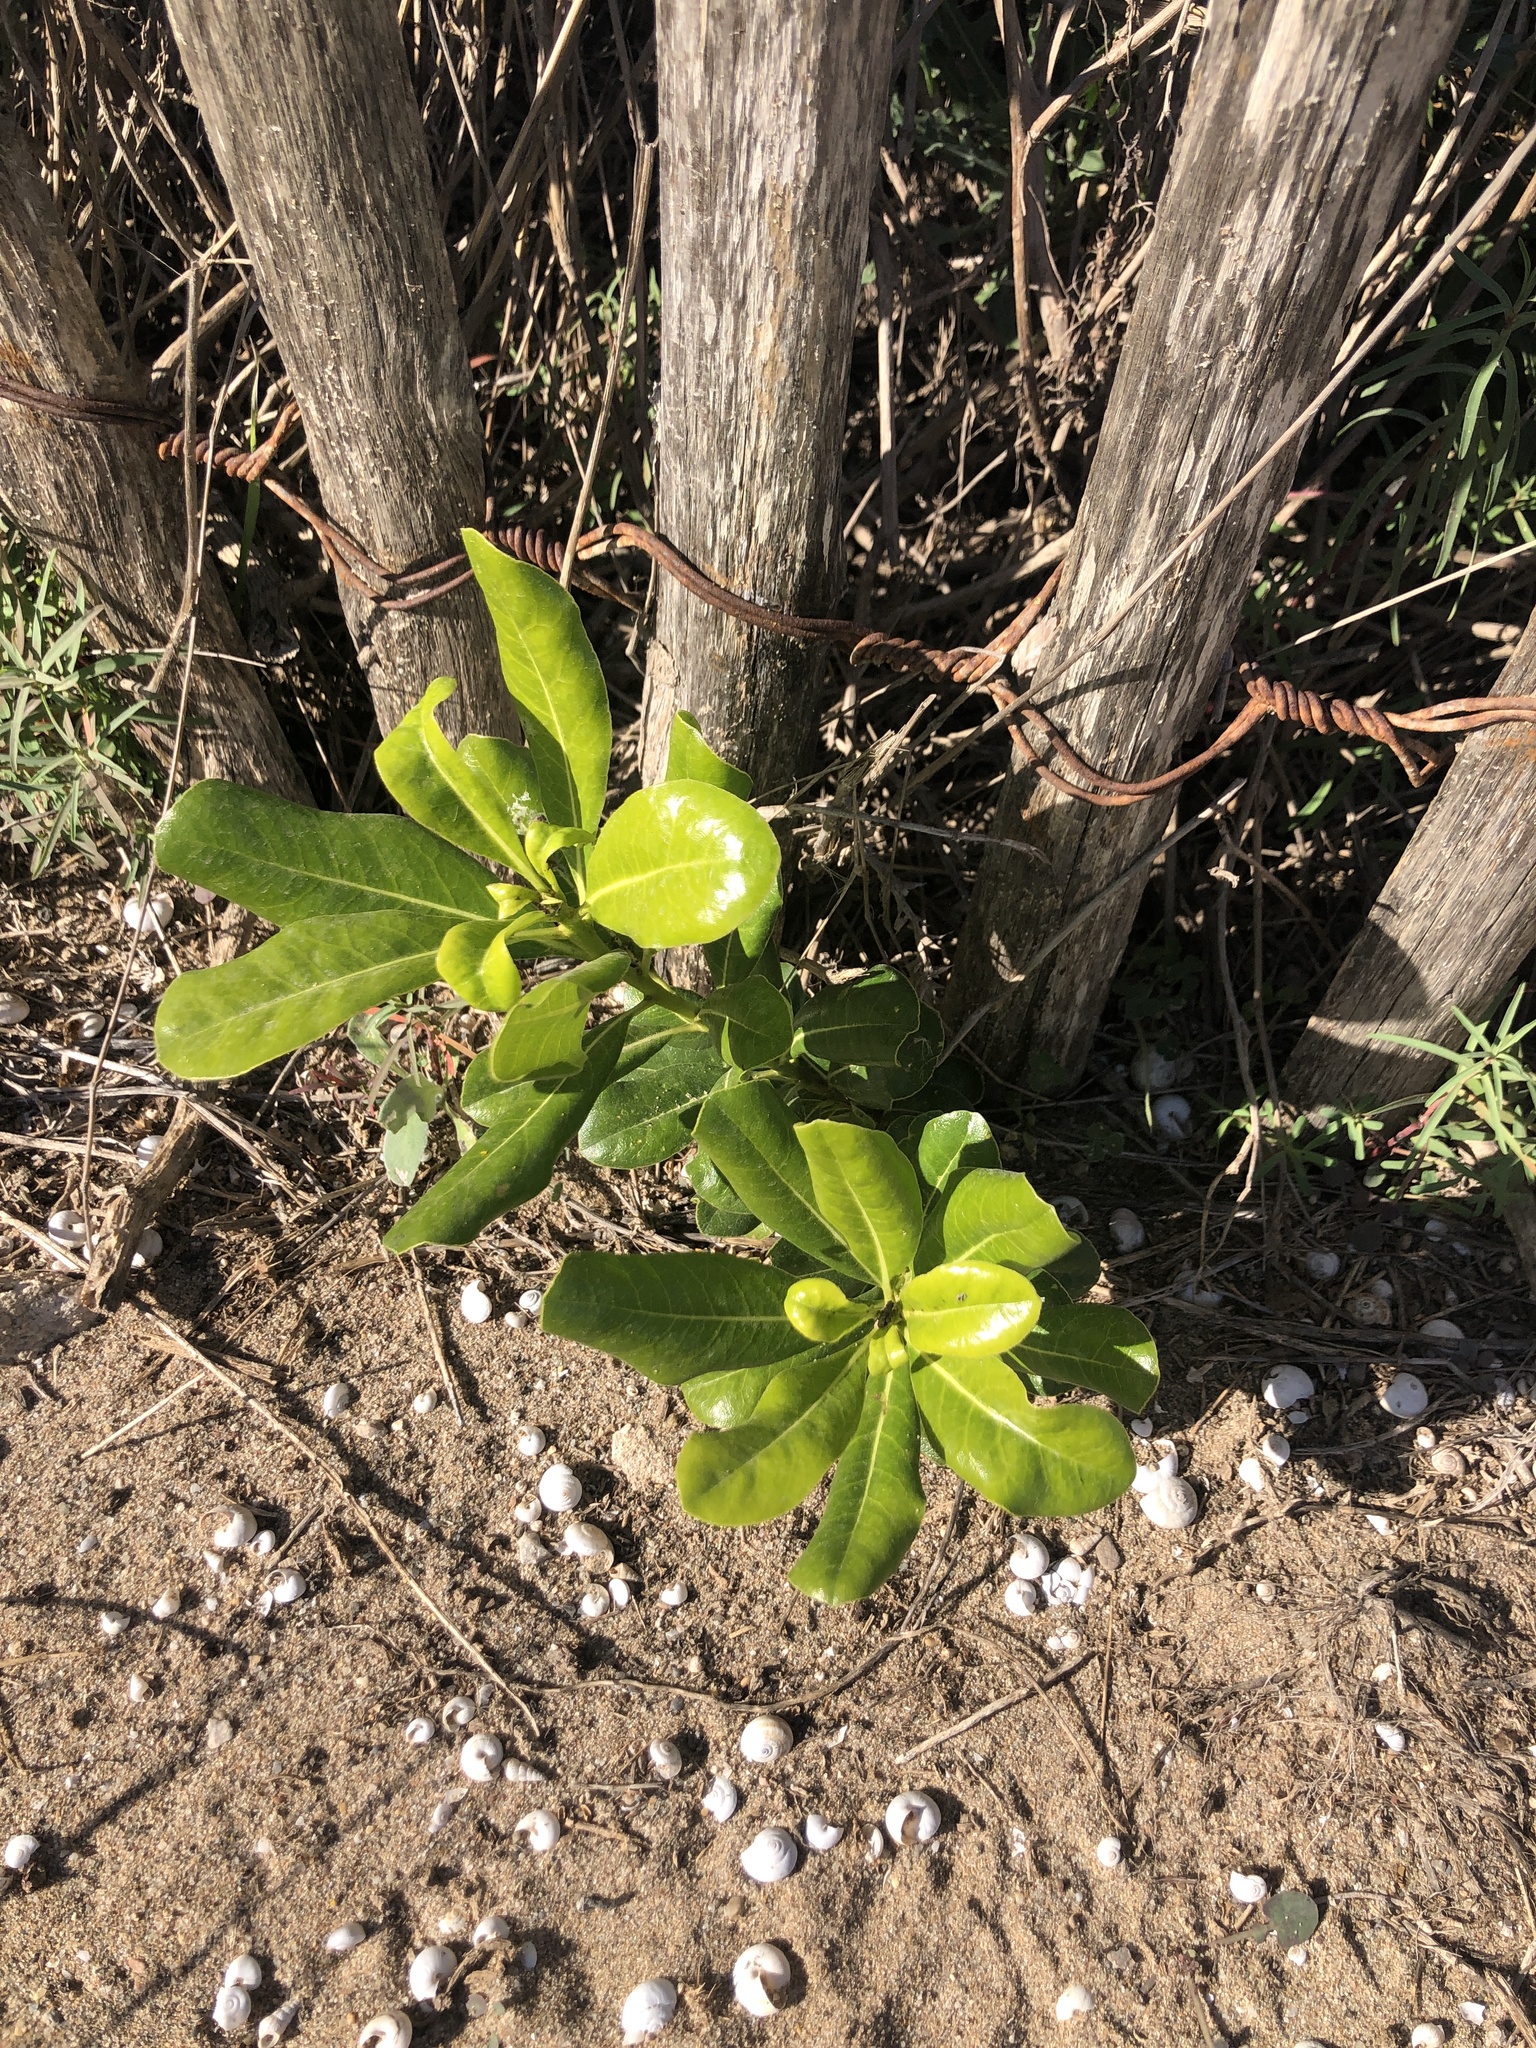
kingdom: Plantae
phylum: Tracheophyta
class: Magnoliopsida
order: Apiales
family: Pittosporaceae
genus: Pittosporum
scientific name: Pittosporum tobira
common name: Japanese cheesewood
